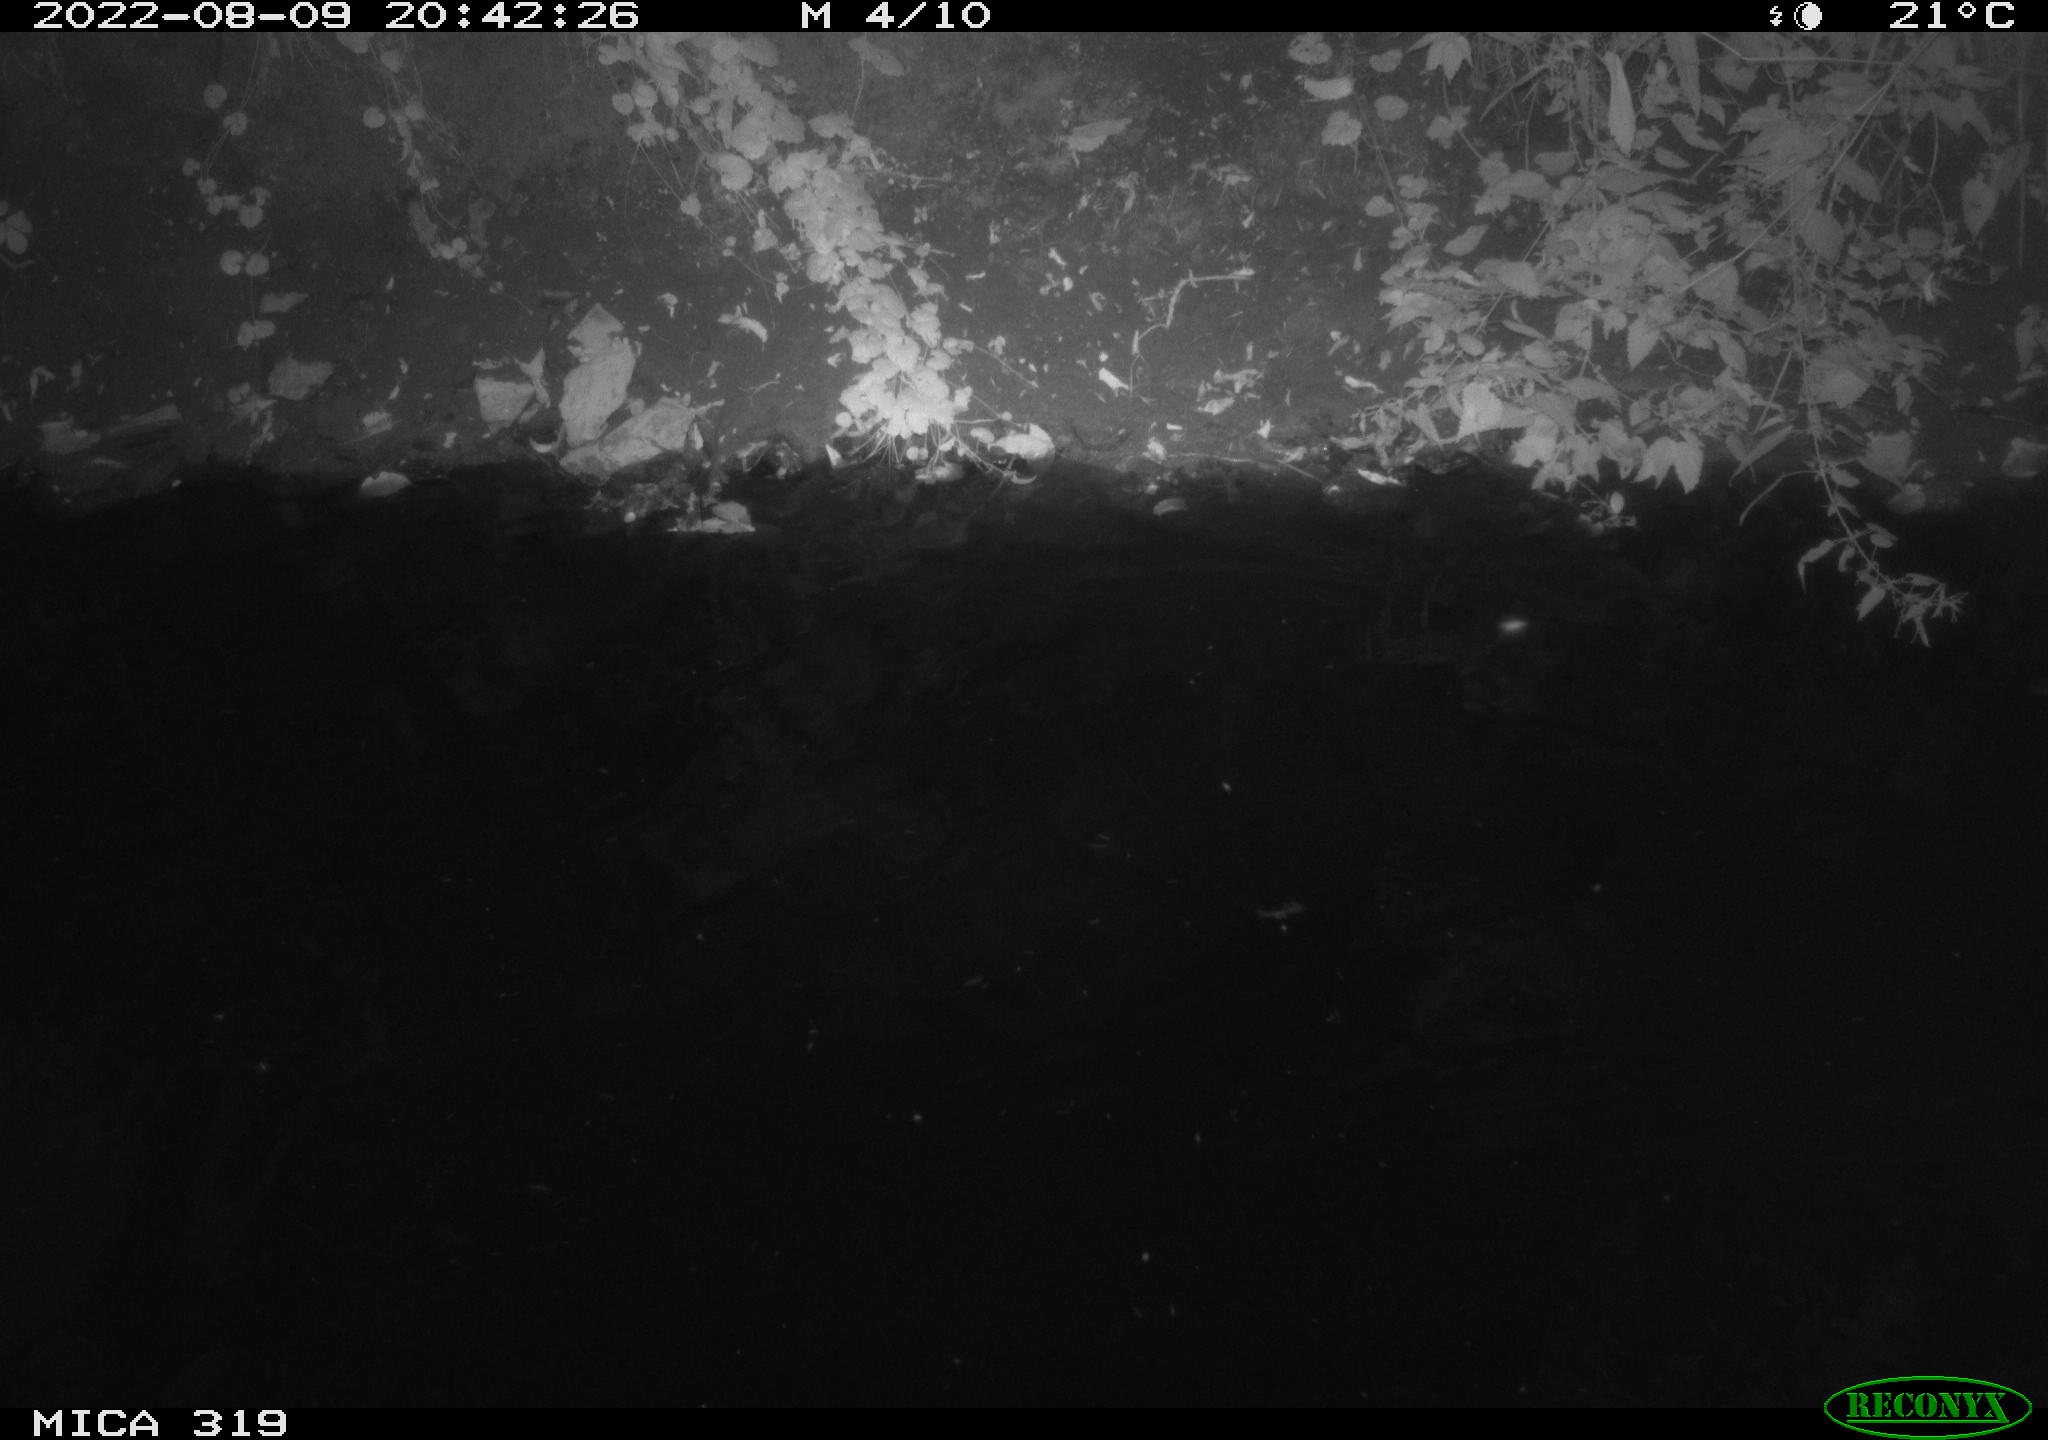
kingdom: Animalia
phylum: Chordata
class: Aves
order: Anseriformes
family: Anatidae
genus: Anas
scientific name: Anas
